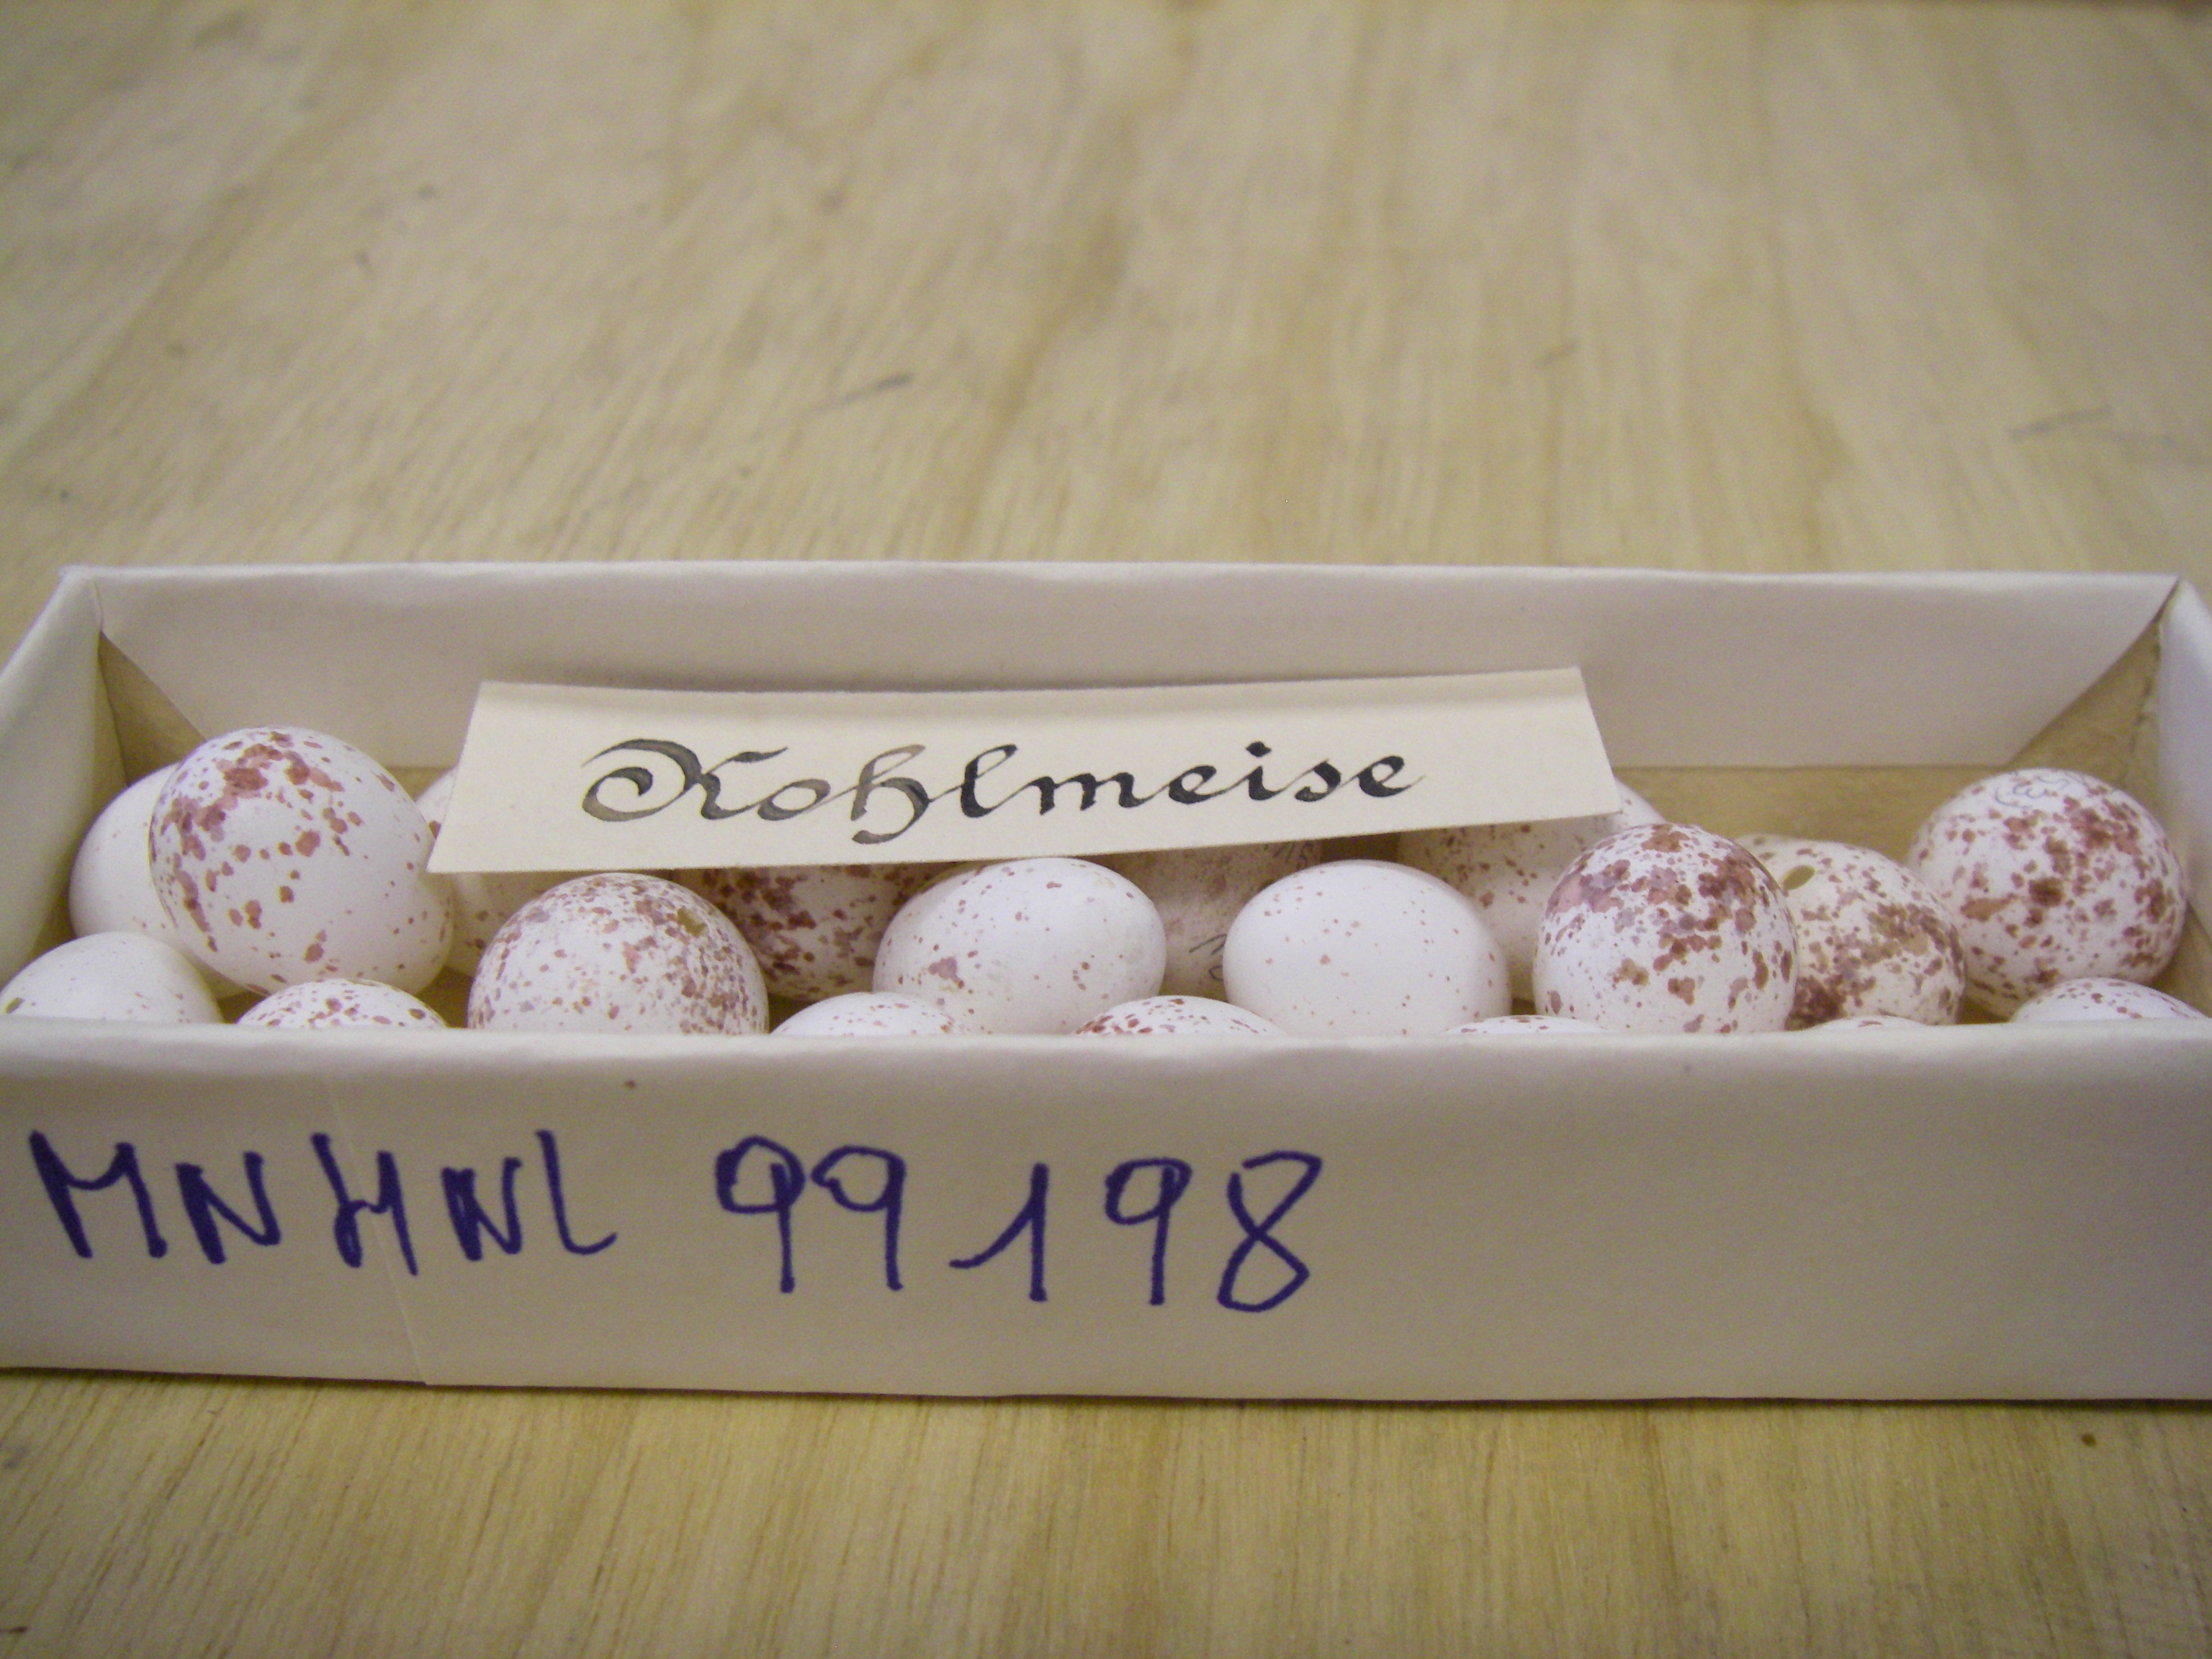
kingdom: Animalia
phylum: Chordata
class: Aves
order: Passeriformes
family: Paridae
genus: Parus
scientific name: Parus major
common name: Great tit
